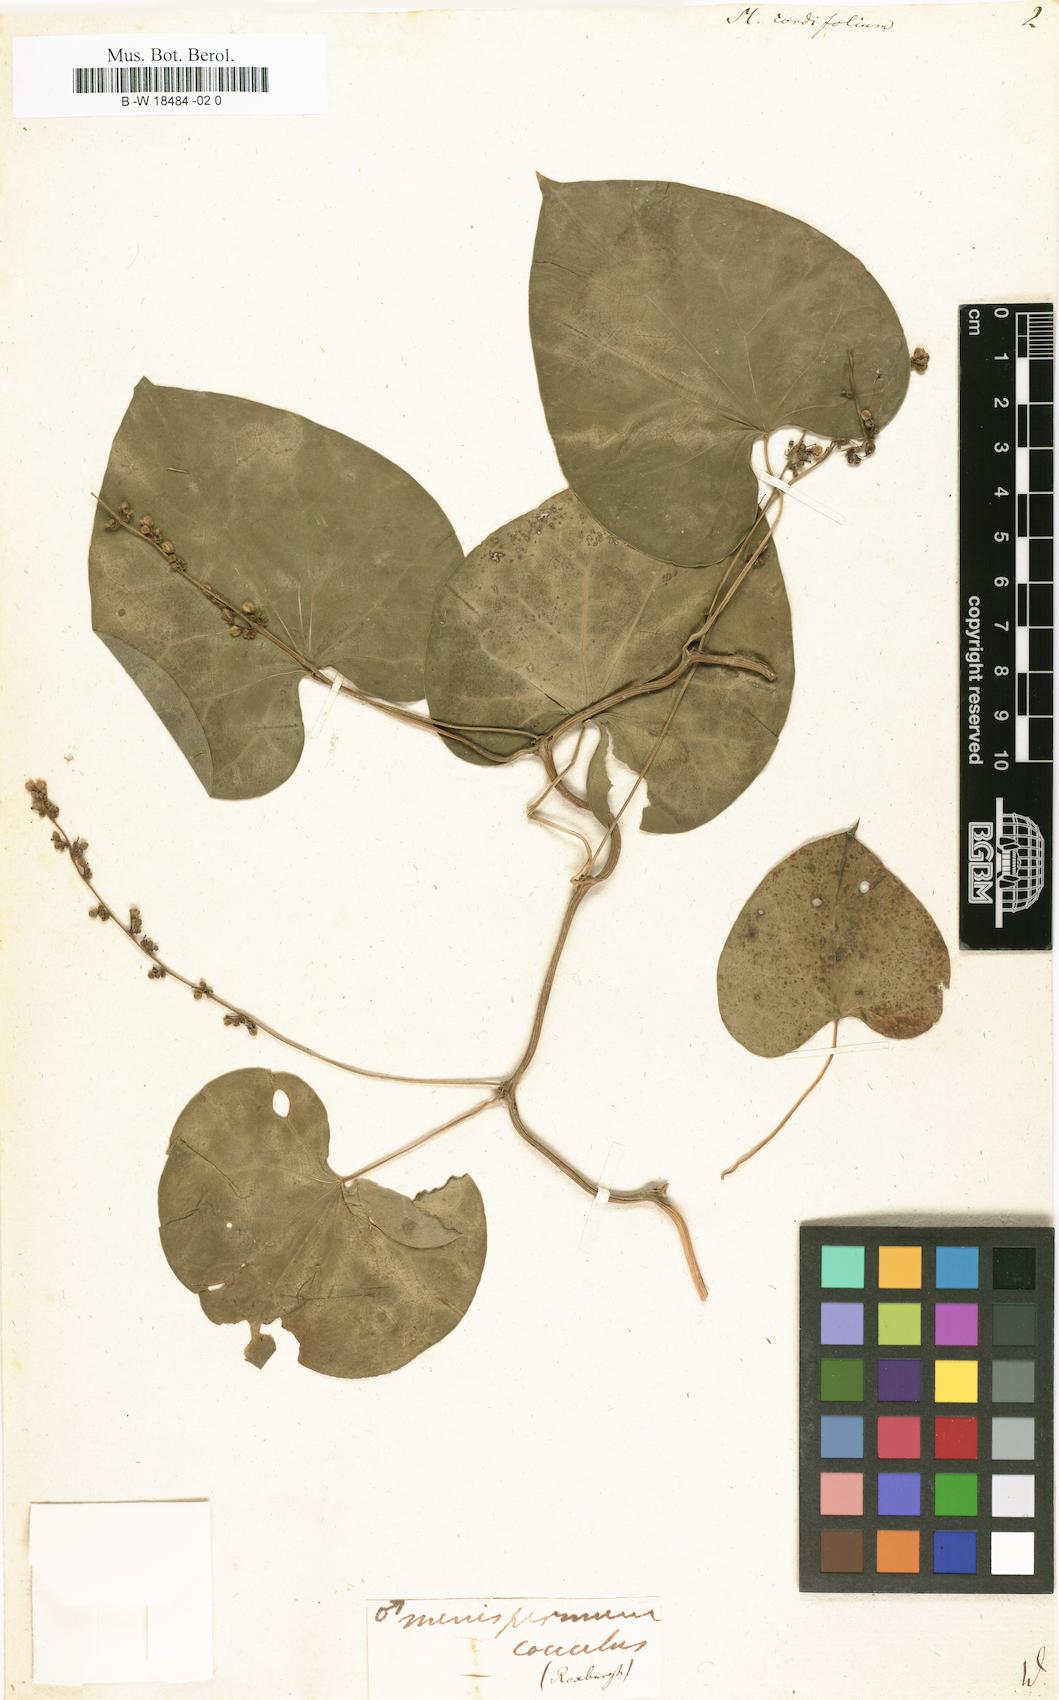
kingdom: Plantae
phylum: Tracheophyta
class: Magnoliopsida
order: Ranunculales
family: Menispermaceae
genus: Tinospora
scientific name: Tinospora cordifolia
